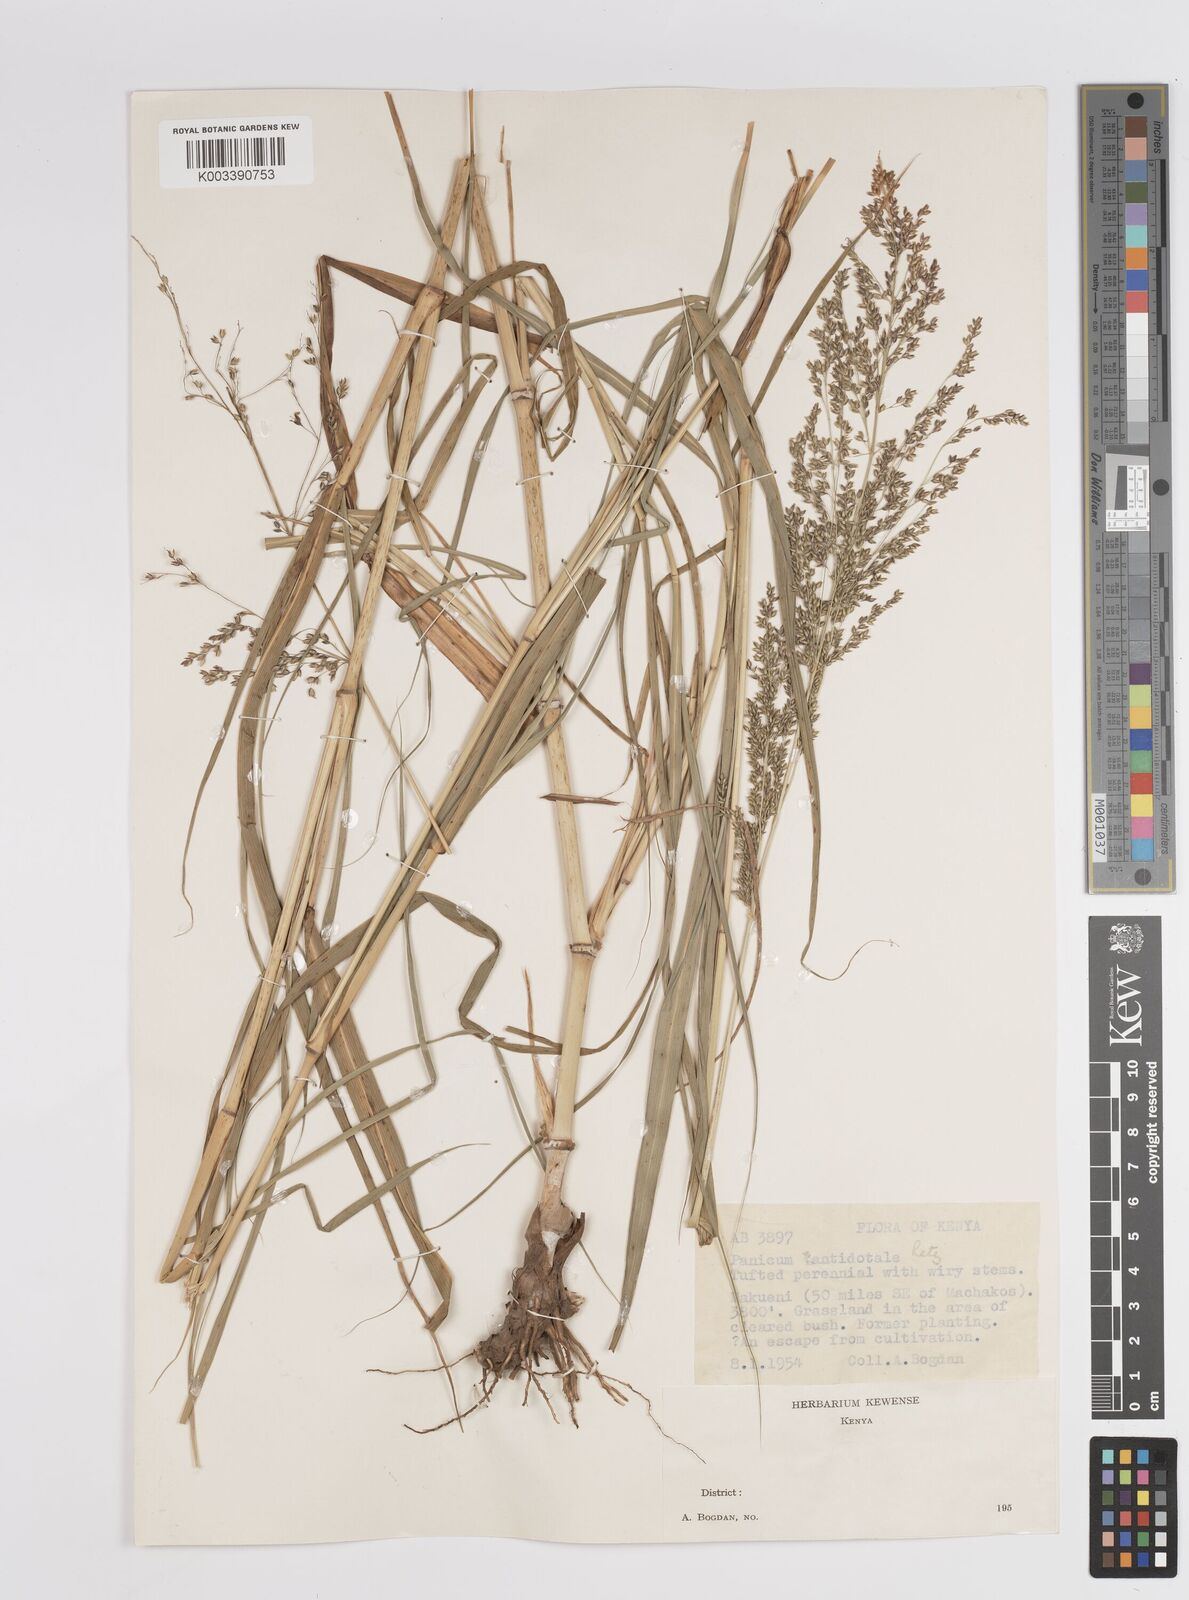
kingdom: Plantae
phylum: Tracheophyta
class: Liliopsida
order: Poales
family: Poaceae
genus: Panicum
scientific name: Panicum antidotale
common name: Blue panicum
